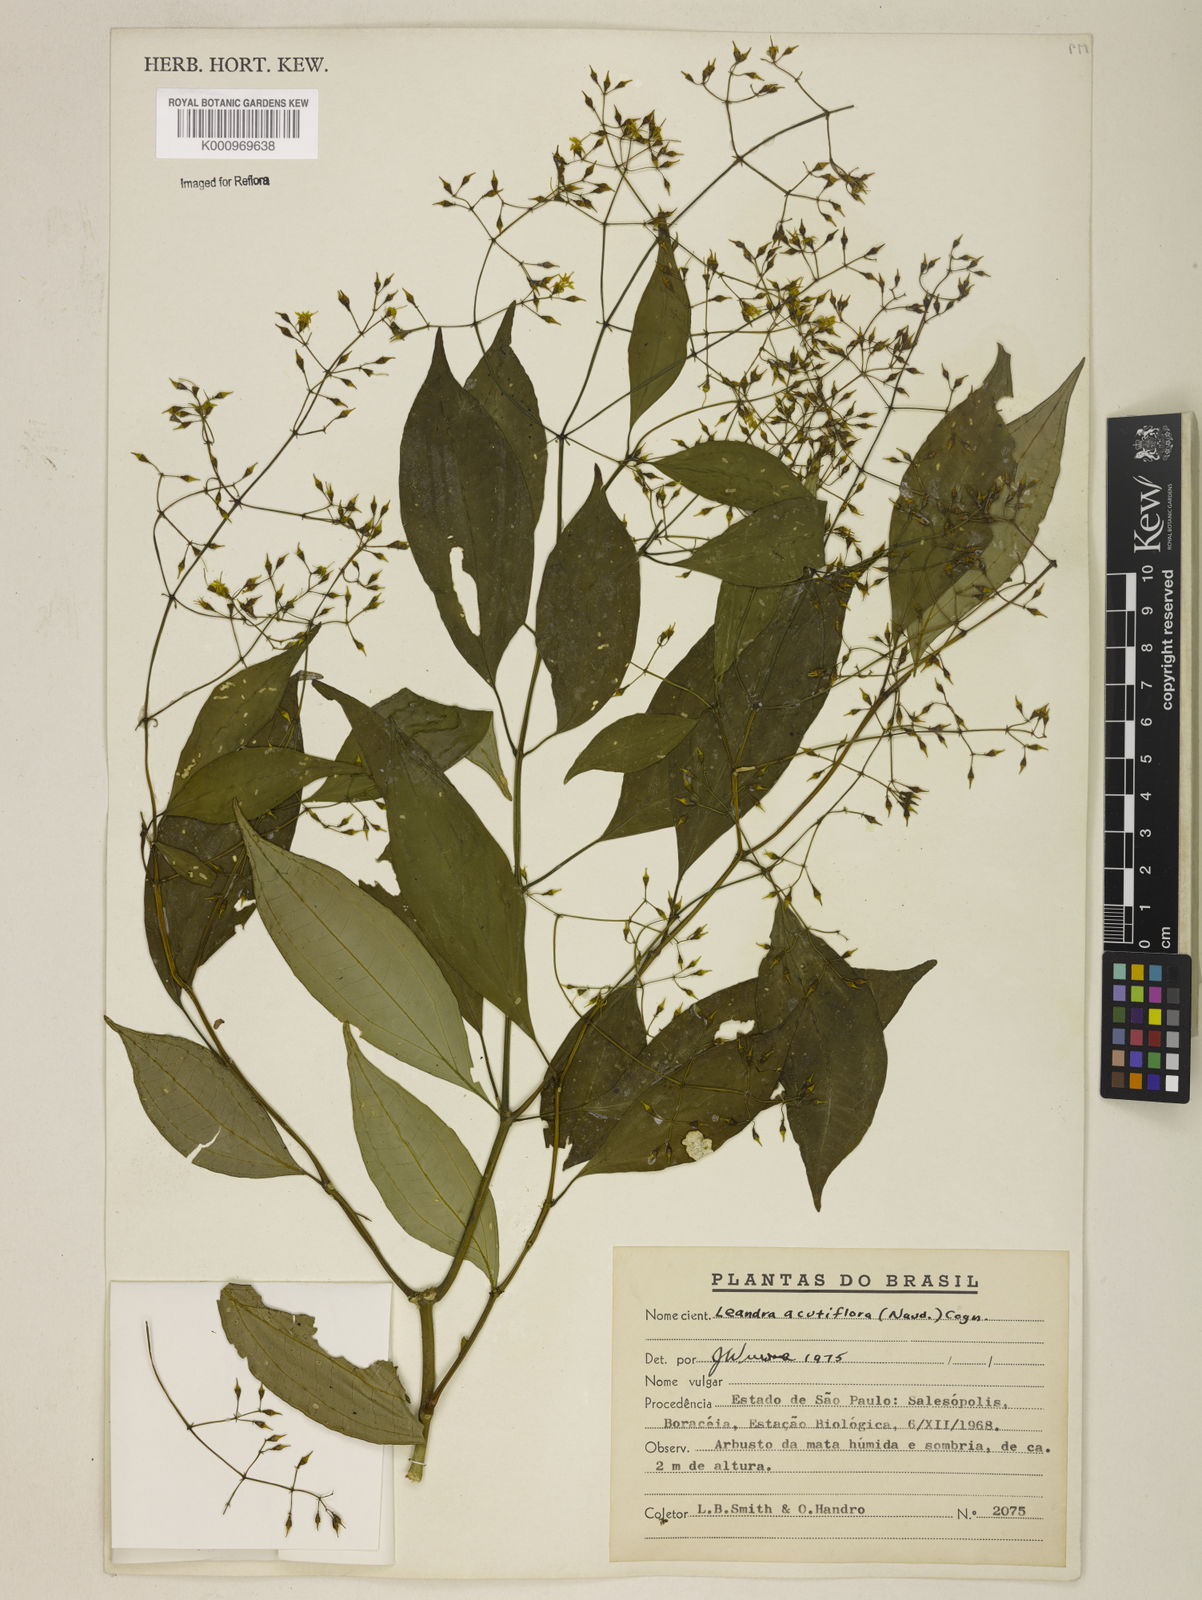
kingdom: Plantae
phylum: Tracheophyta
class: Magnoliopsida
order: Myrtales
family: Melastomataceae
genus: Miconia
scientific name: Miconia acutiflora
